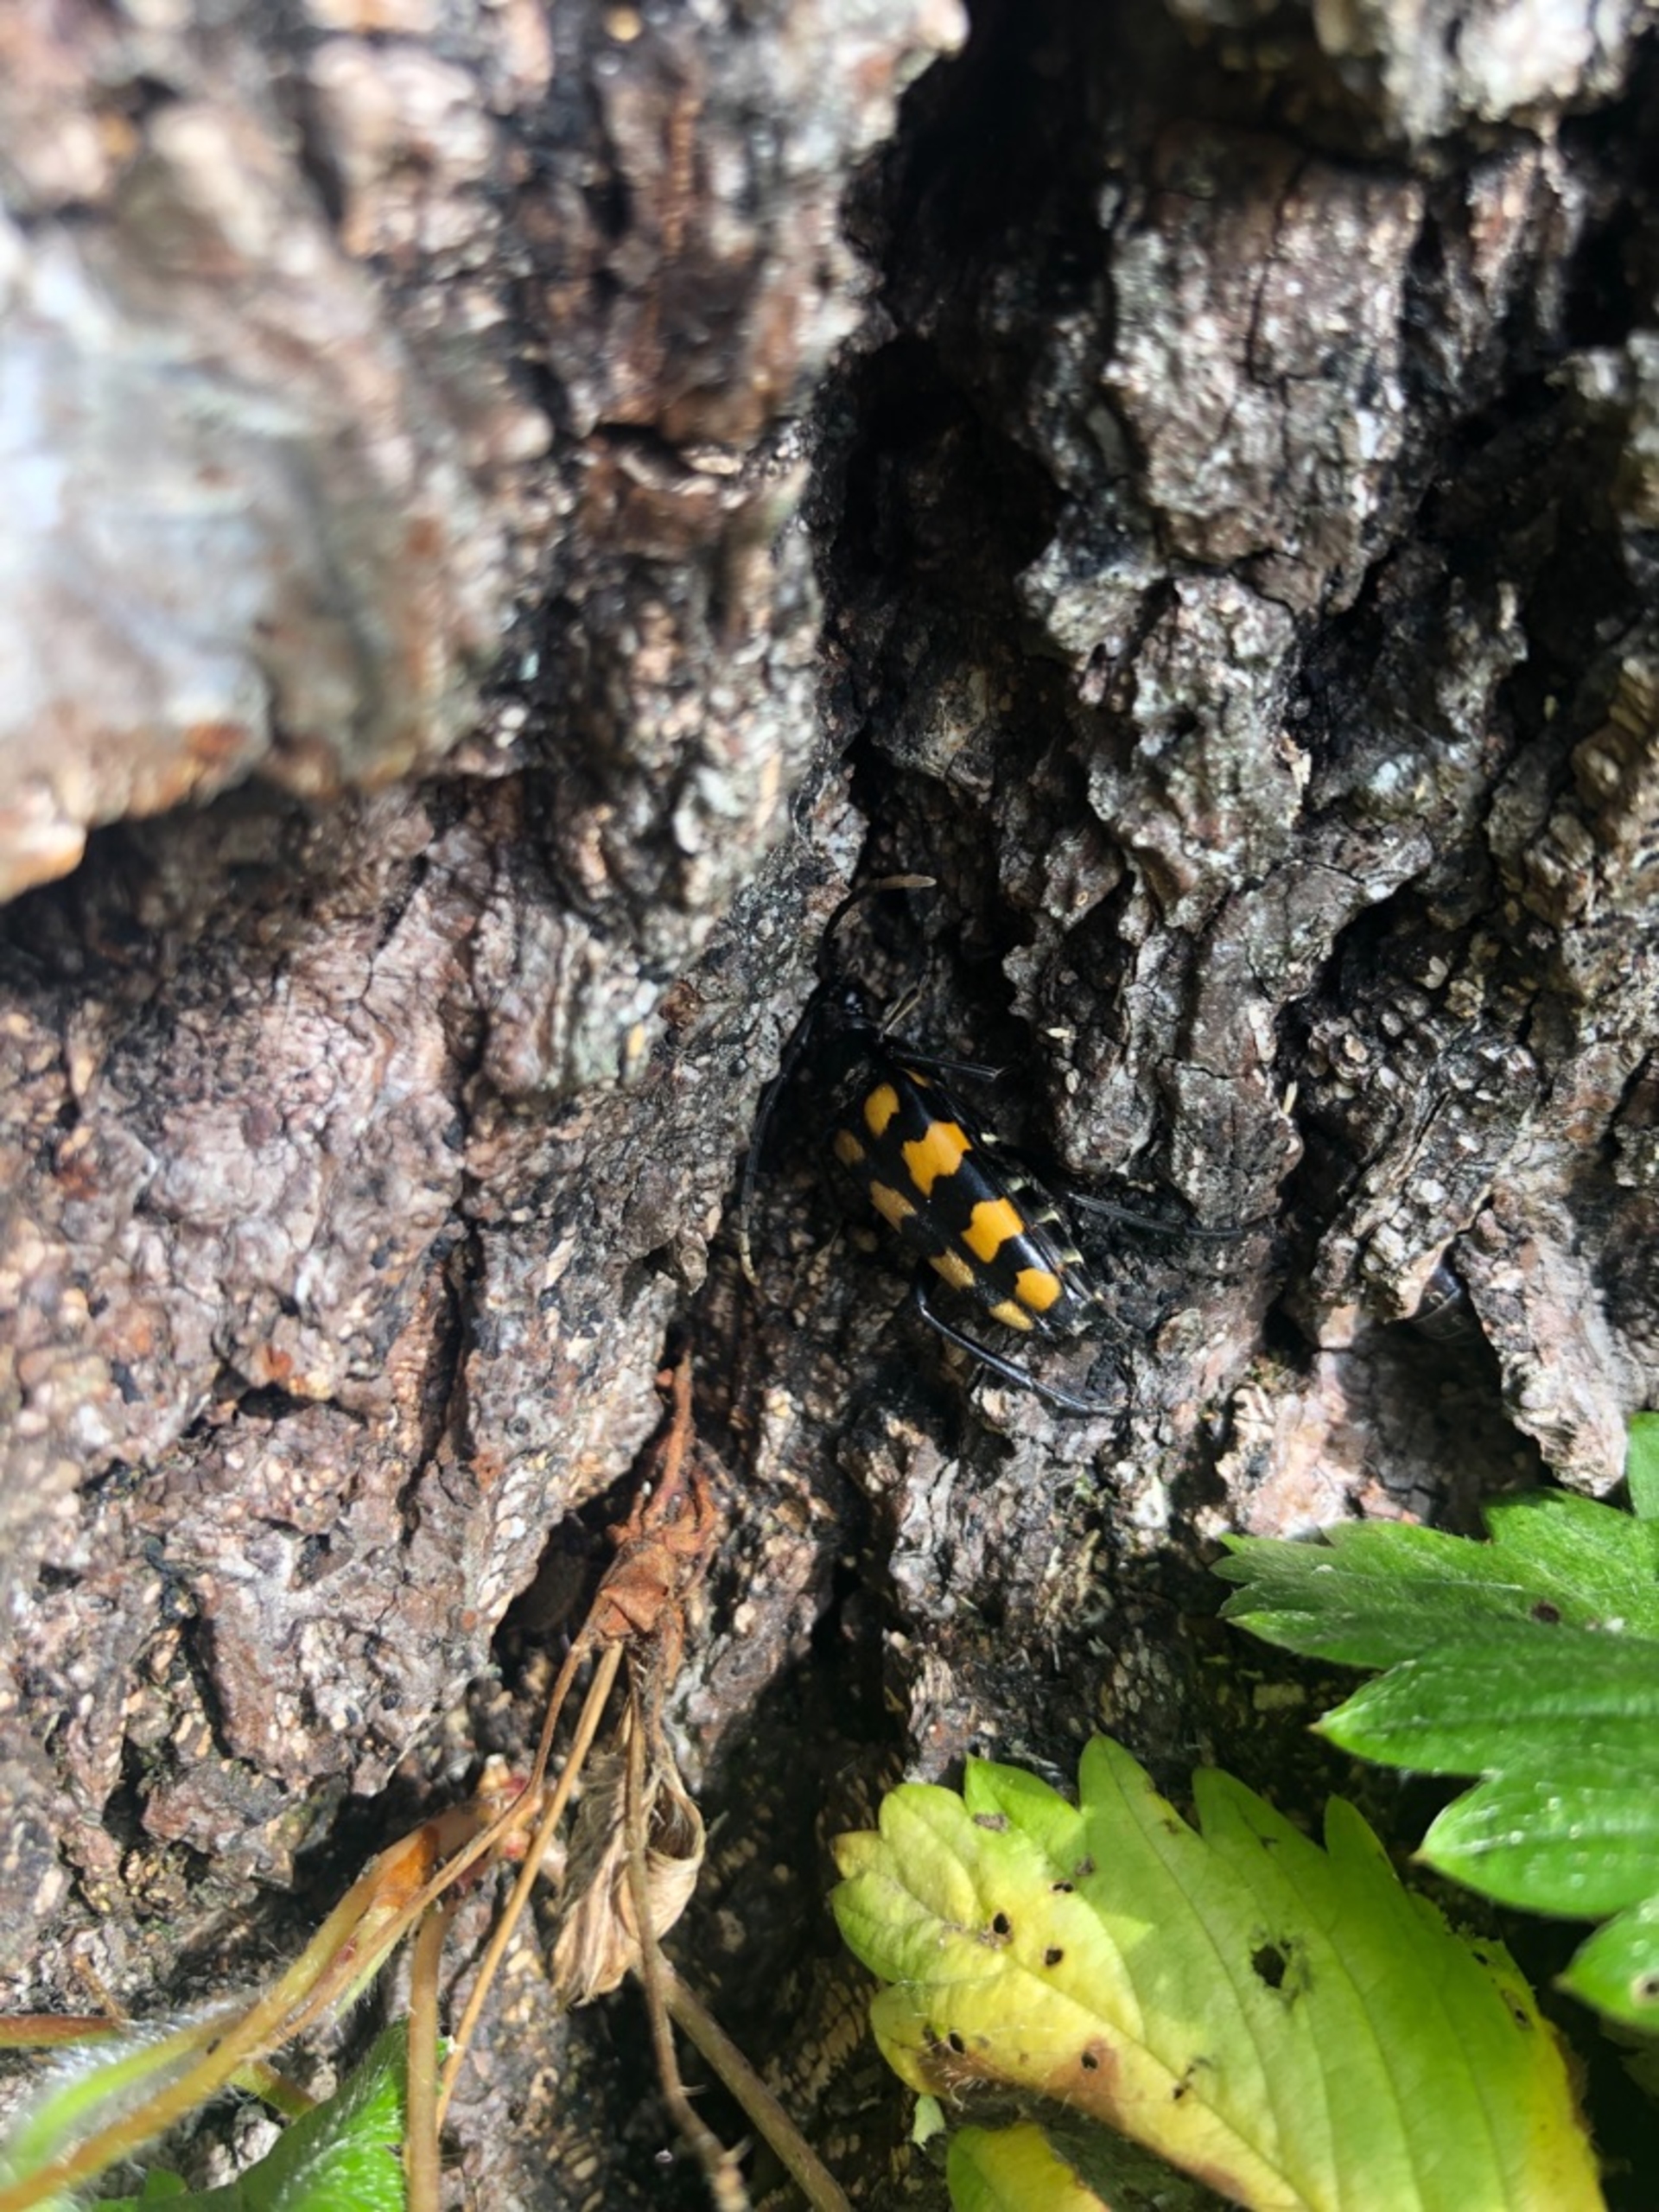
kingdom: Animalia
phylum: Arthropoda
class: Insecta
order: Coleoptera
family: Cerambycidae
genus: Leptura
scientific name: Leptura quadrifasciata
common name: Firebåndet blomsterbuk
